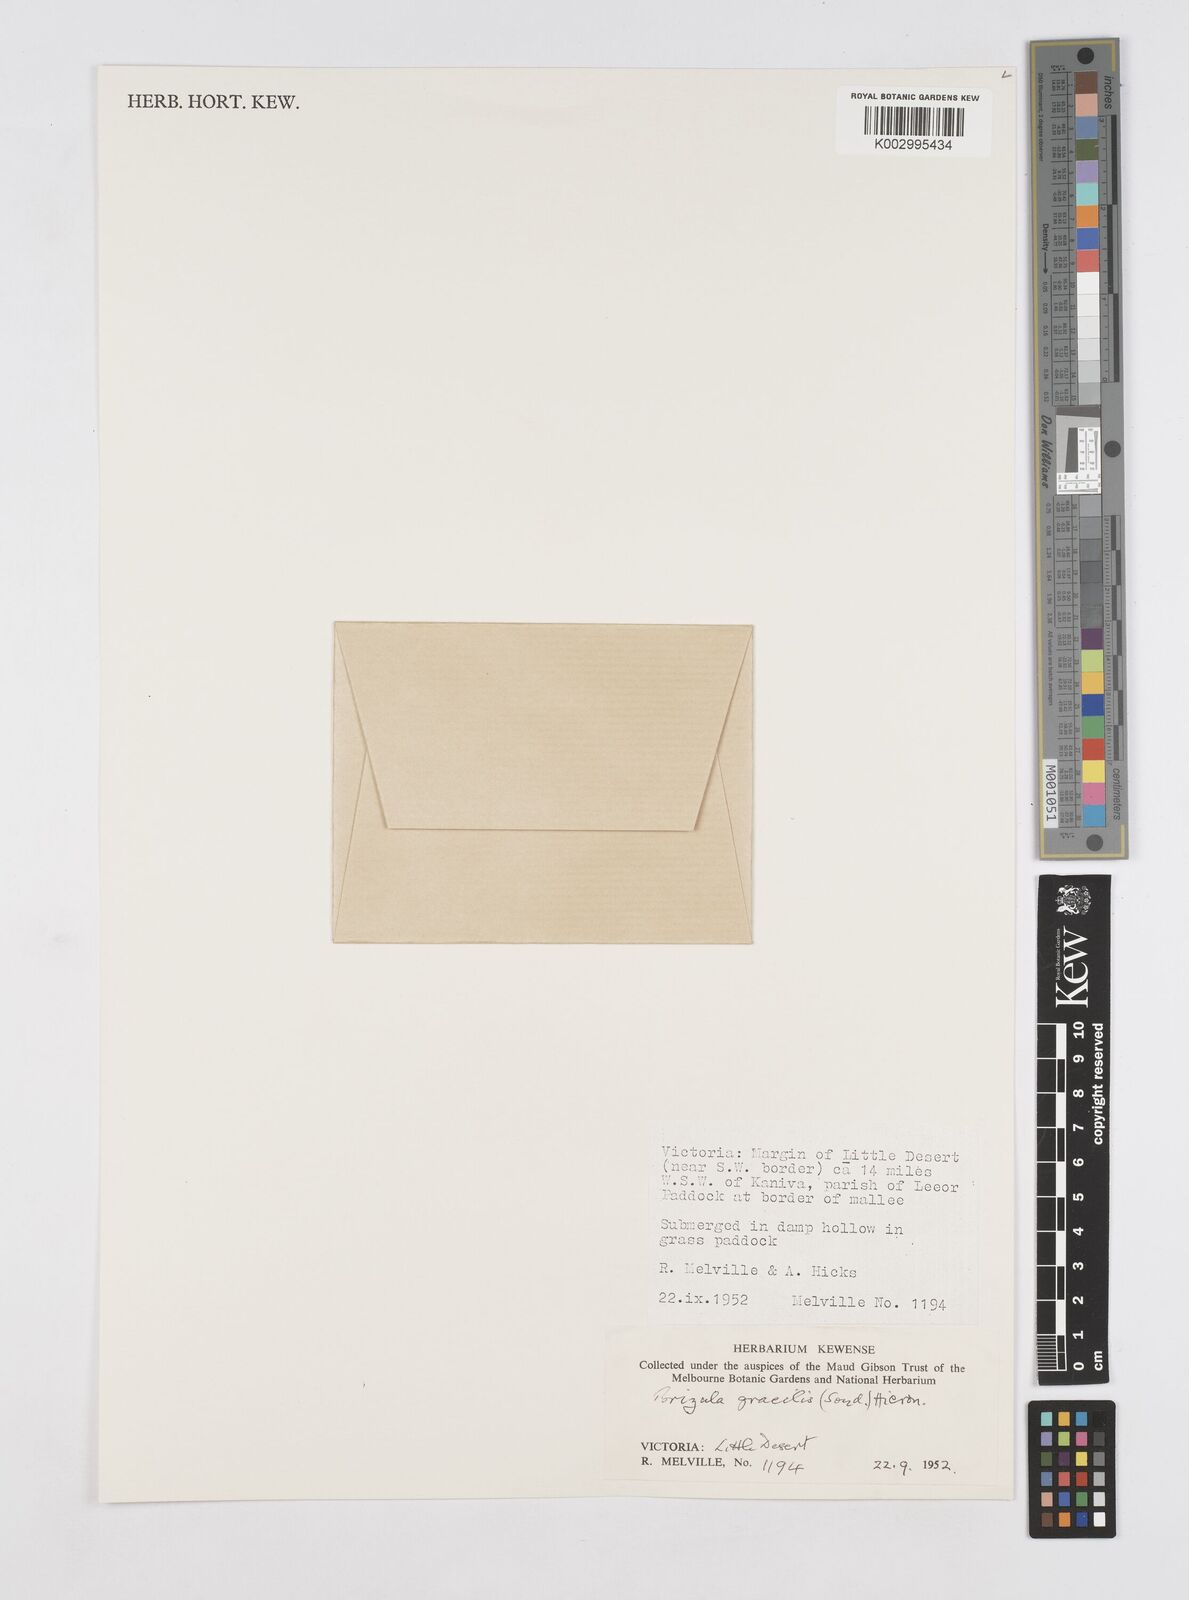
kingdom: Plantae
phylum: Tracheophyta
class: Liliopsida
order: Poales
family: Restionaceae
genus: Aphelia
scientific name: Aphelia gracilis
